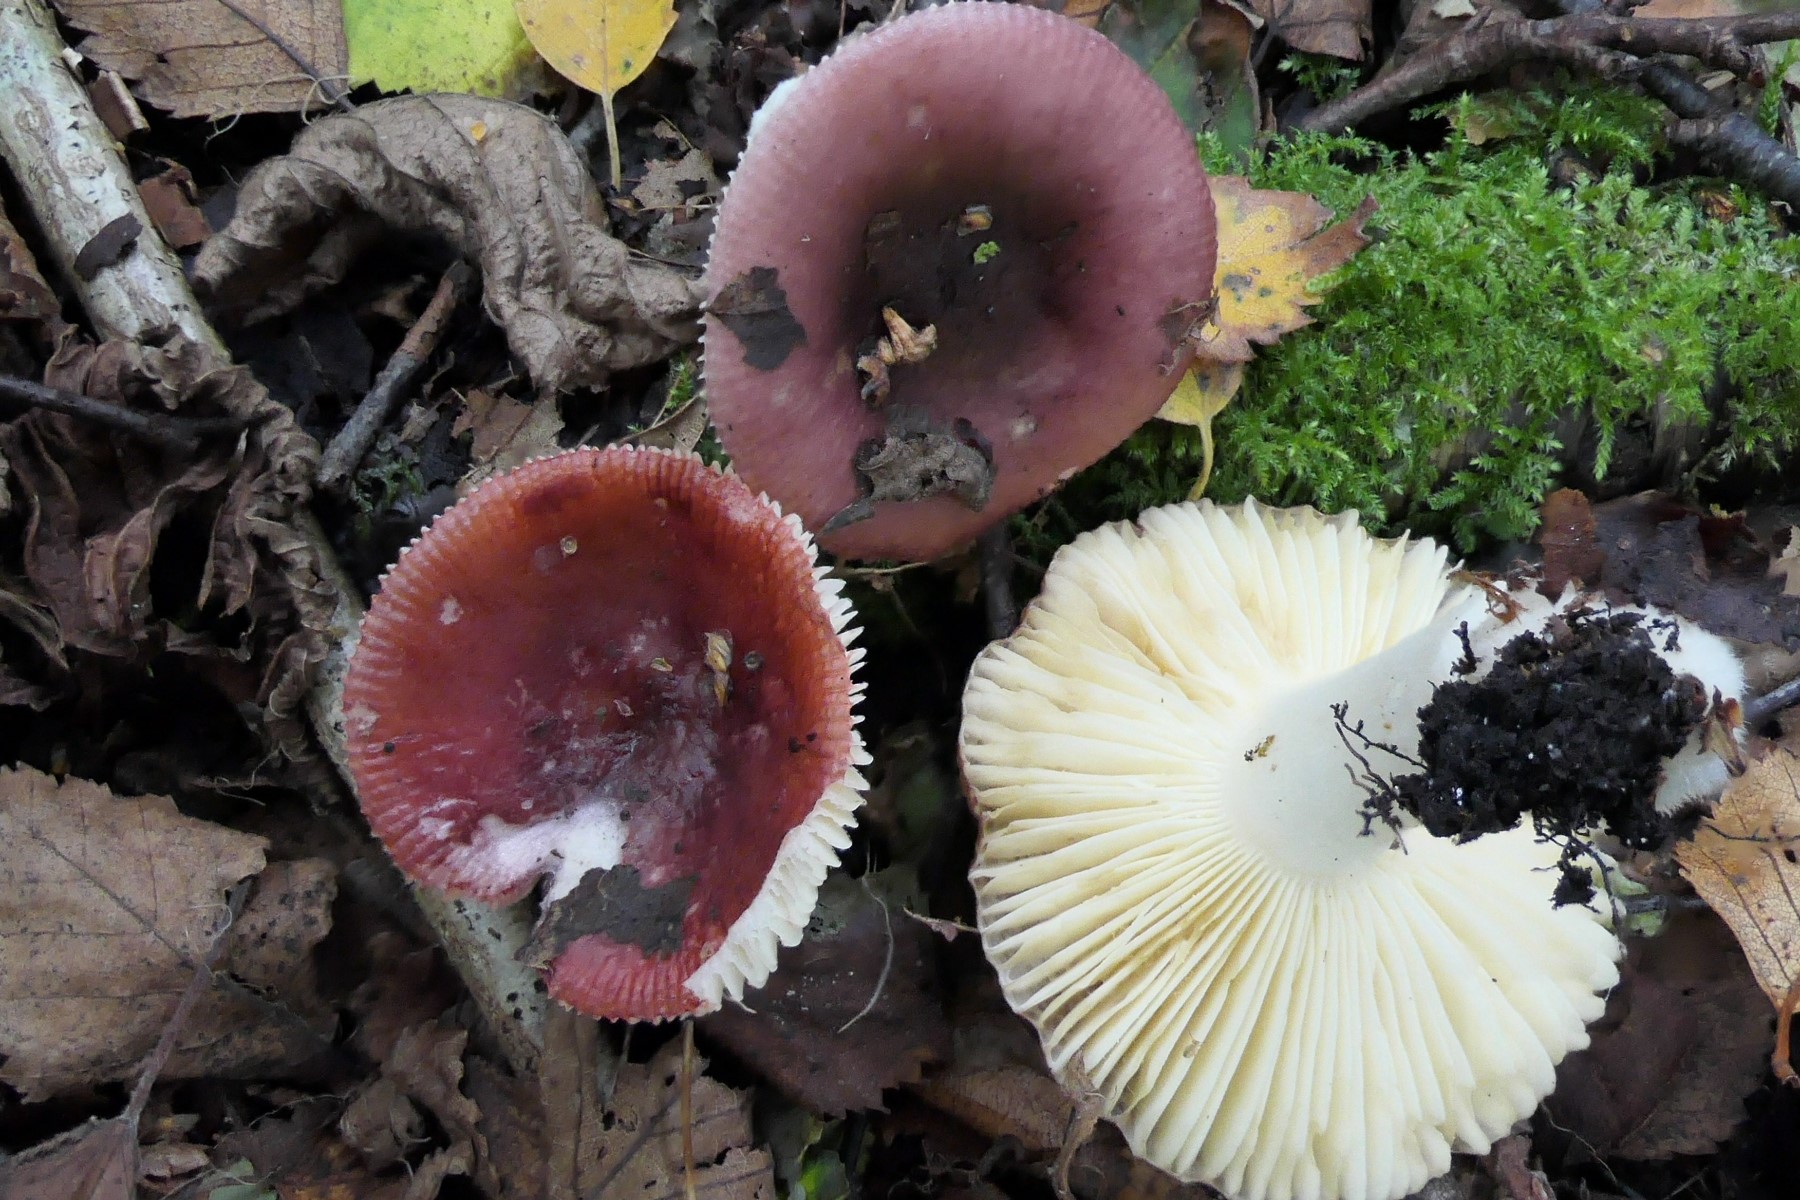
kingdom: Fungi
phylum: Basidiomycota
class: Agaricomycetes
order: Russulales
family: Russulaceae
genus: Russula
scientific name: Russula nitida
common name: året skørhat
